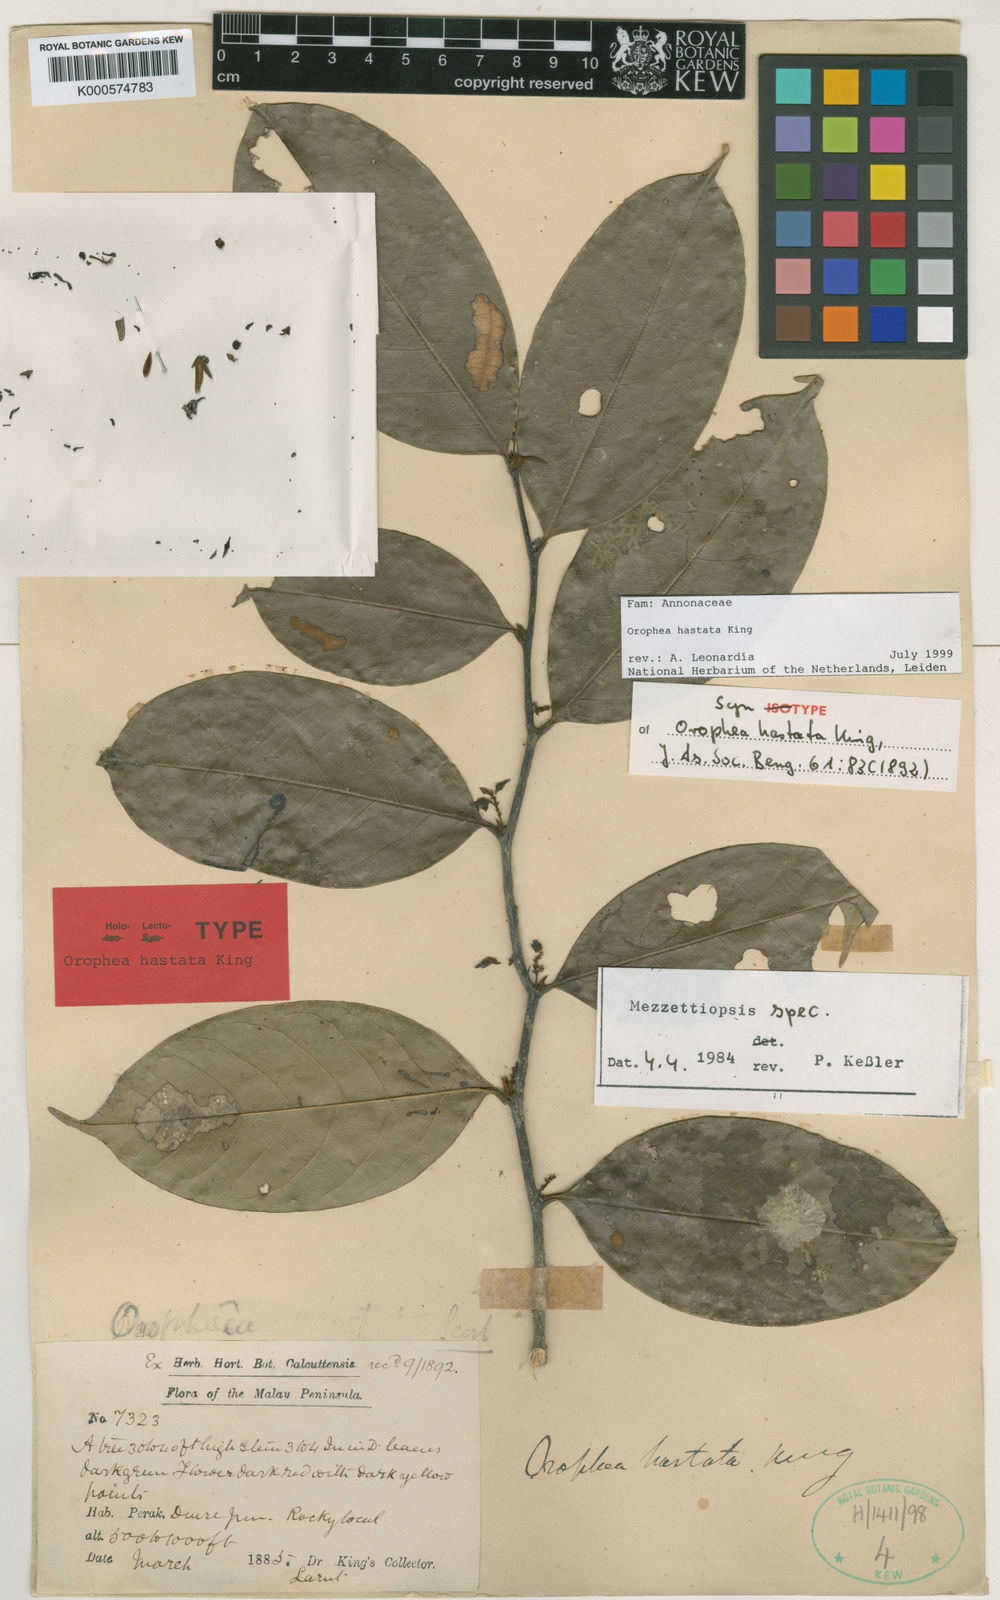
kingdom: Plantae
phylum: Tracheophyta
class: Magnoliopsida
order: Magnoliales
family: Annonaceae
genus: Orophea
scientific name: Orophea hastata
